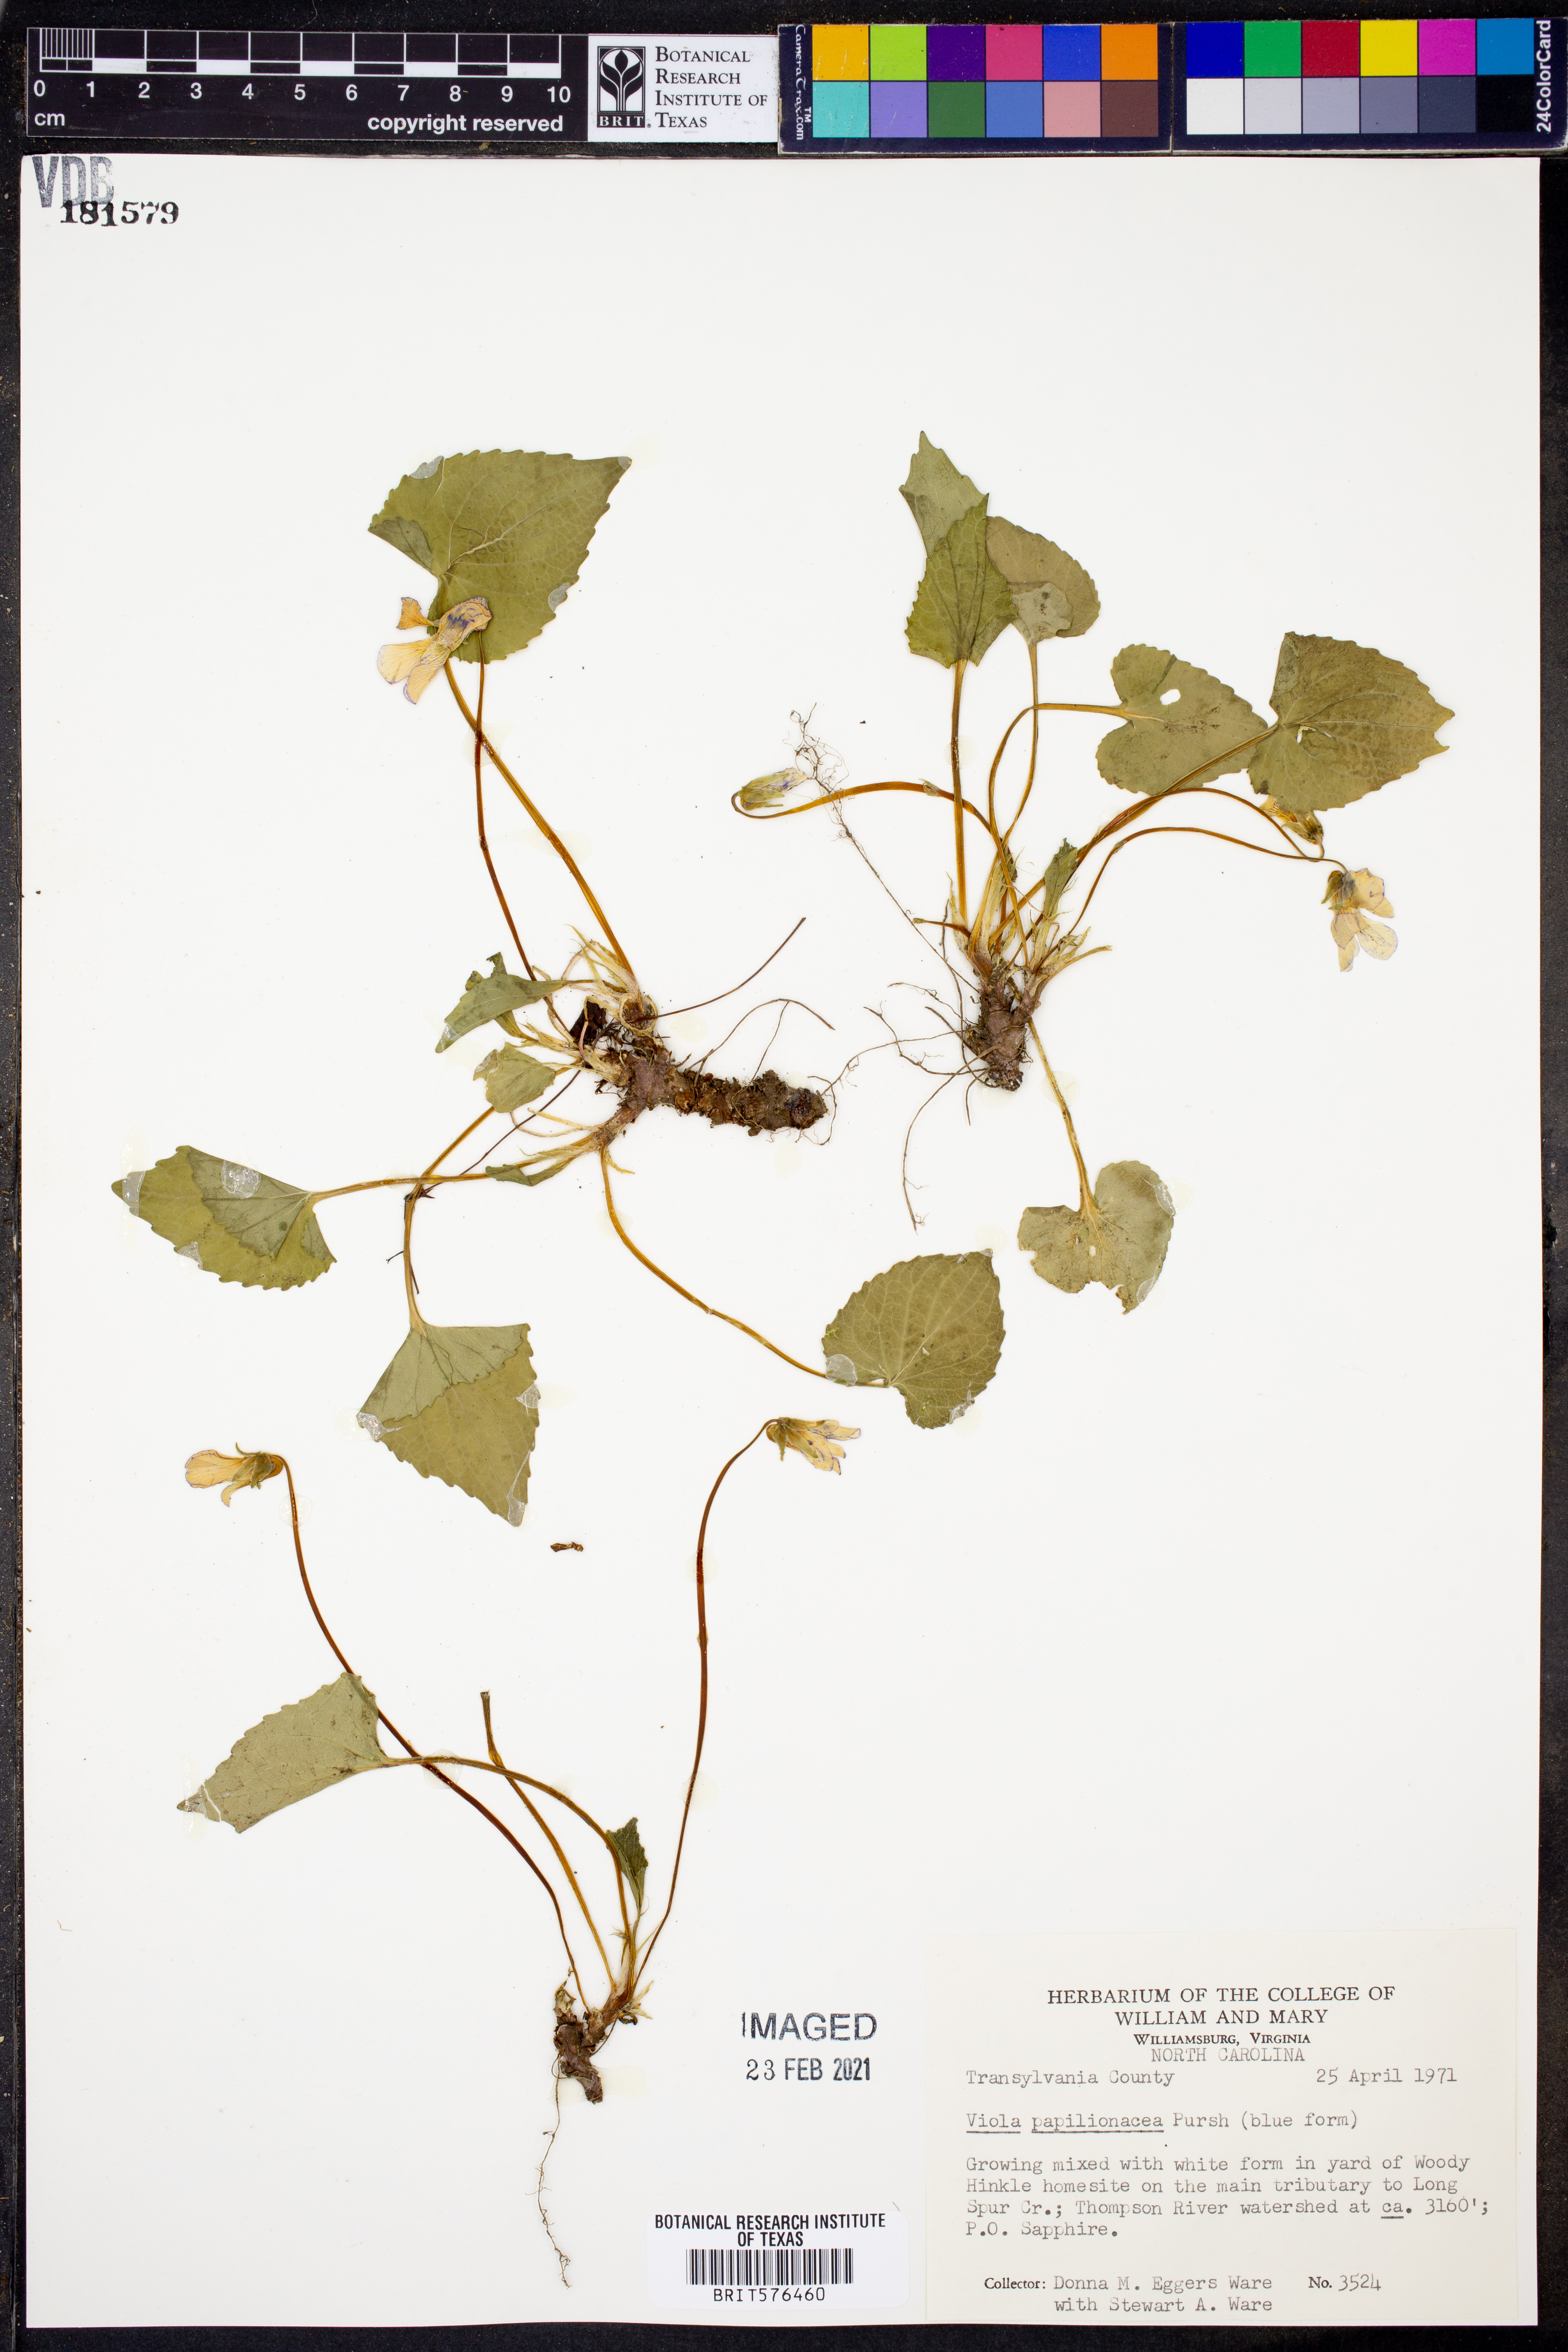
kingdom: Plantae
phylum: Tracheophyta
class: Magnoliopsida
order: Malpighiales
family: Violaceae
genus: Viola
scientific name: Viola sororia
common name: Dooryard violet
